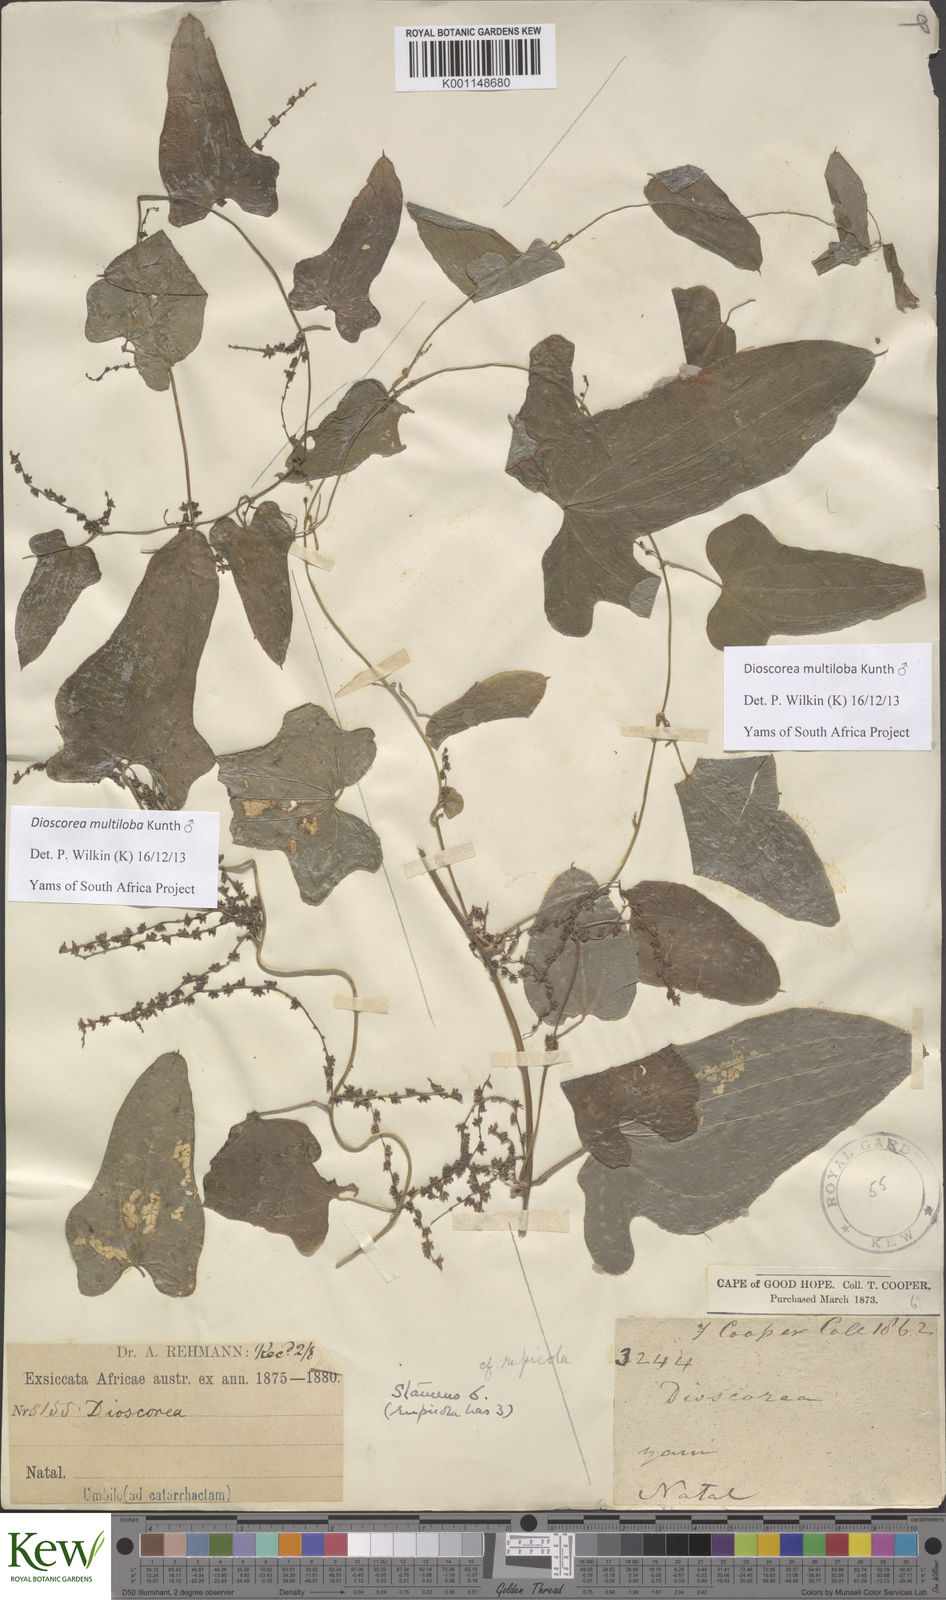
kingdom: Plantae
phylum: Tracheophyta
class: Liliopsida
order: Dioscoreales
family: Dioscoreaceae
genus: Dioscorea
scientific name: Dioscorea multiloba
